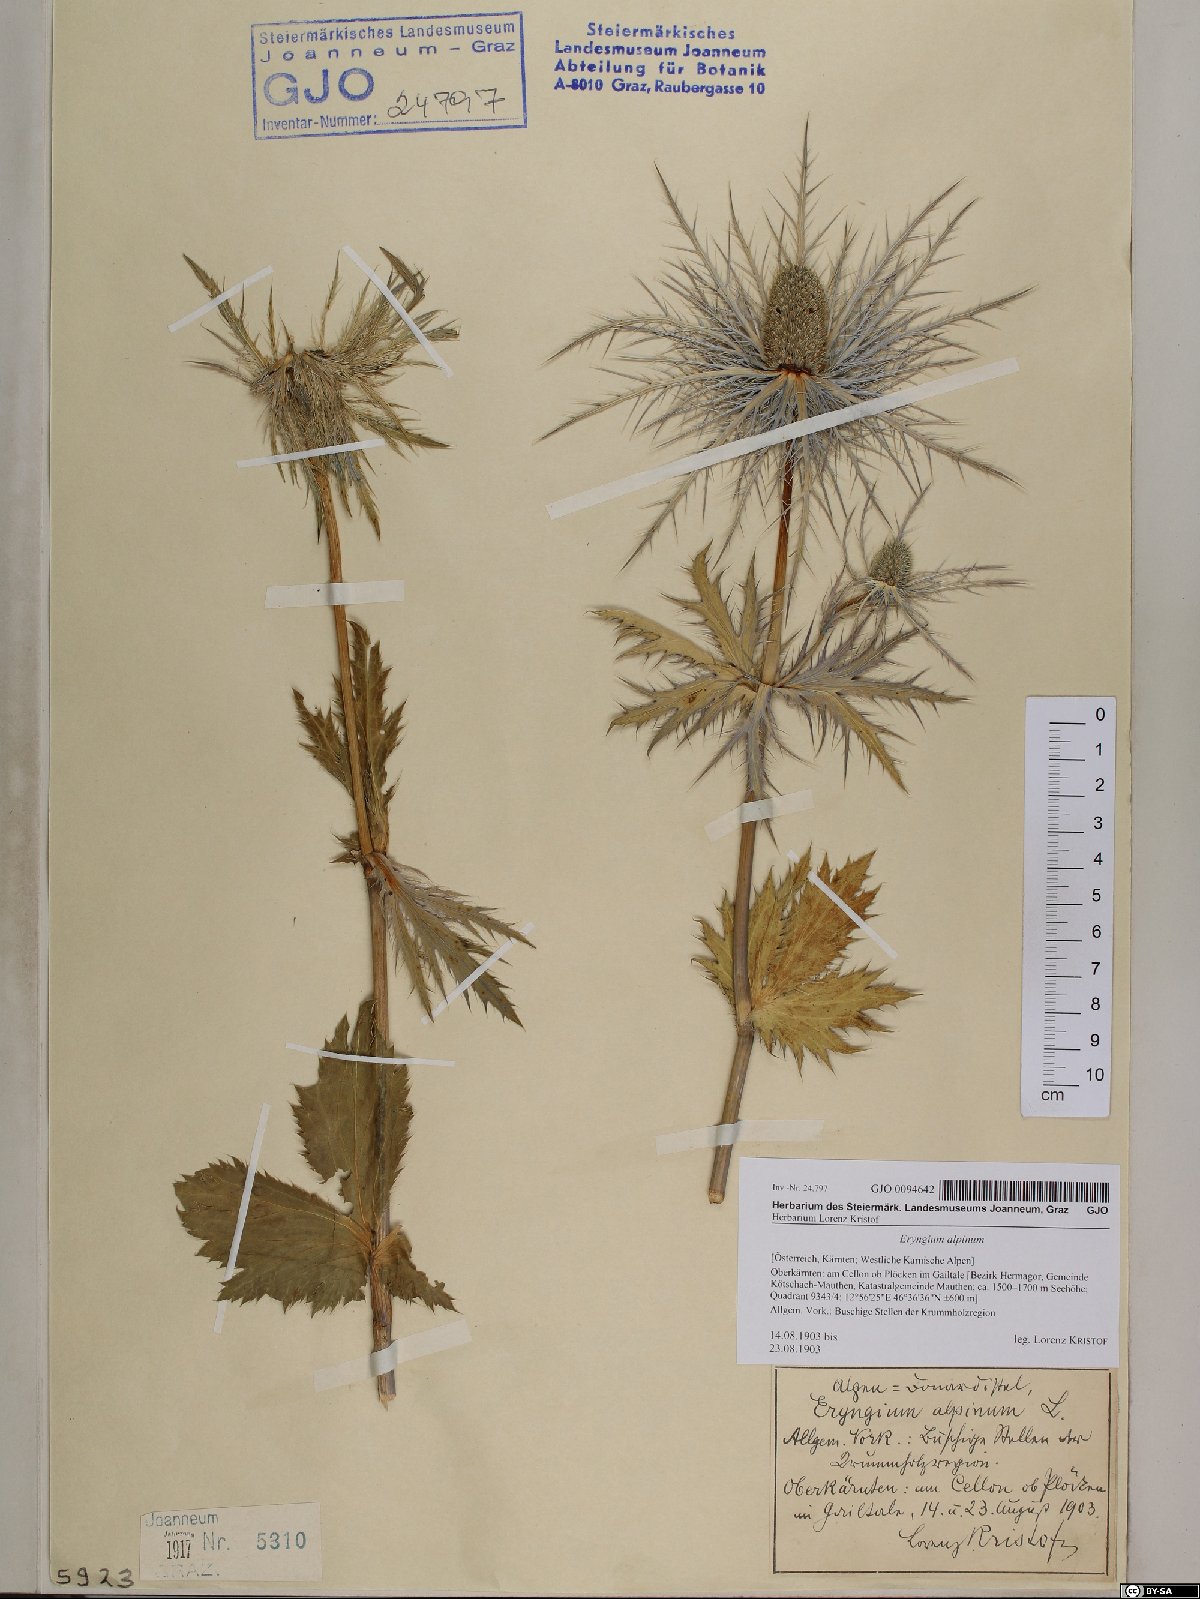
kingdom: Plantae
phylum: Tracheophyta
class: Magnoliopsida
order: Apiales
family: Apiaceae
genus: Eryngium
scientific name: Eryngium alpinum
